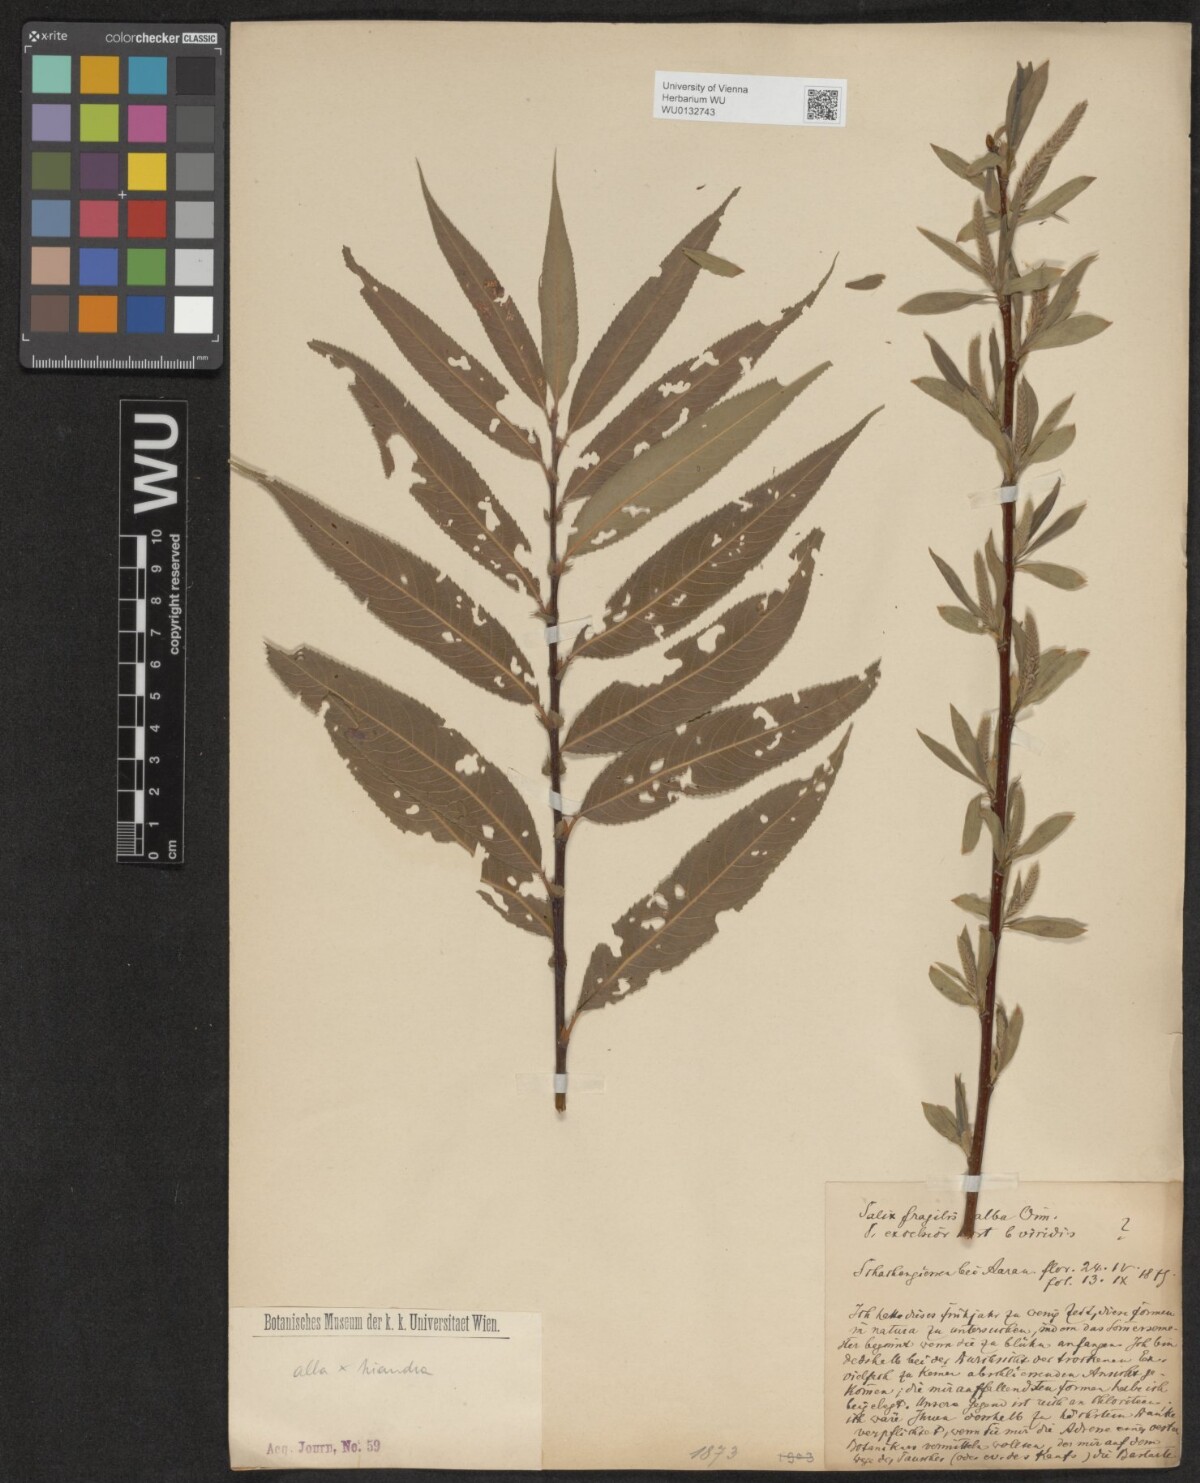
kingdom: Plantae
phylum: Tracheophyta
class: Magnoliopsida
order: Malpighiales
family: Salicaceae
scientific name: Salicaceae
